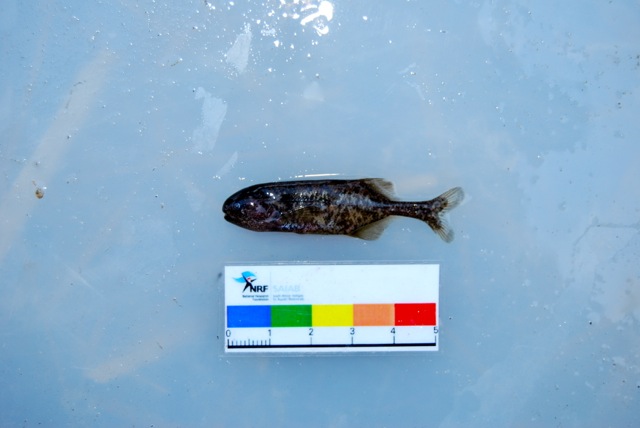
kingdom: Animalia
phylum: Chordata
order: Osteoglossiformes
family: Mormyridae
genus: Pollimyrus
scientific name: Pollimyrus castelnaui
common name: Dwarf stonebasher
